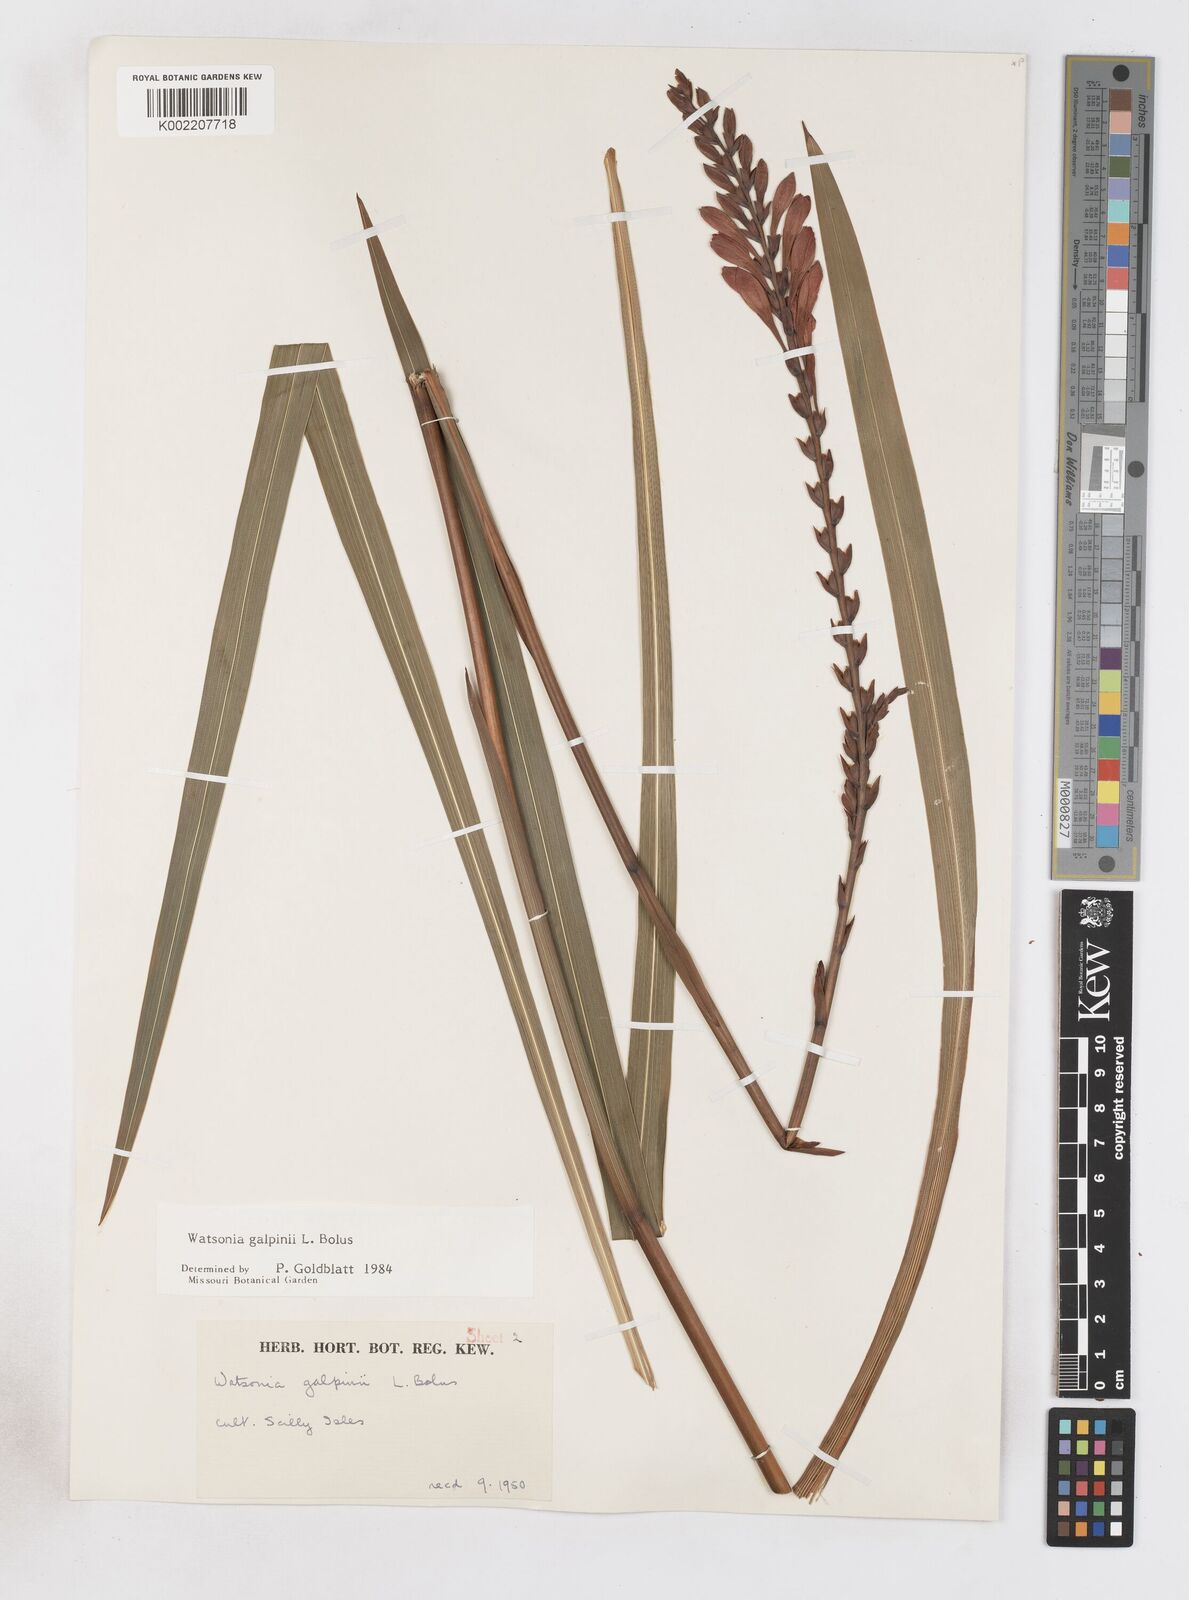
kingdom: Plantae
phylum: Tracheophyta
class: Liliopsida
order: Asparagales
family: Iridaceae
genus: Watsonia
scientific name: Watsonia galpinii
